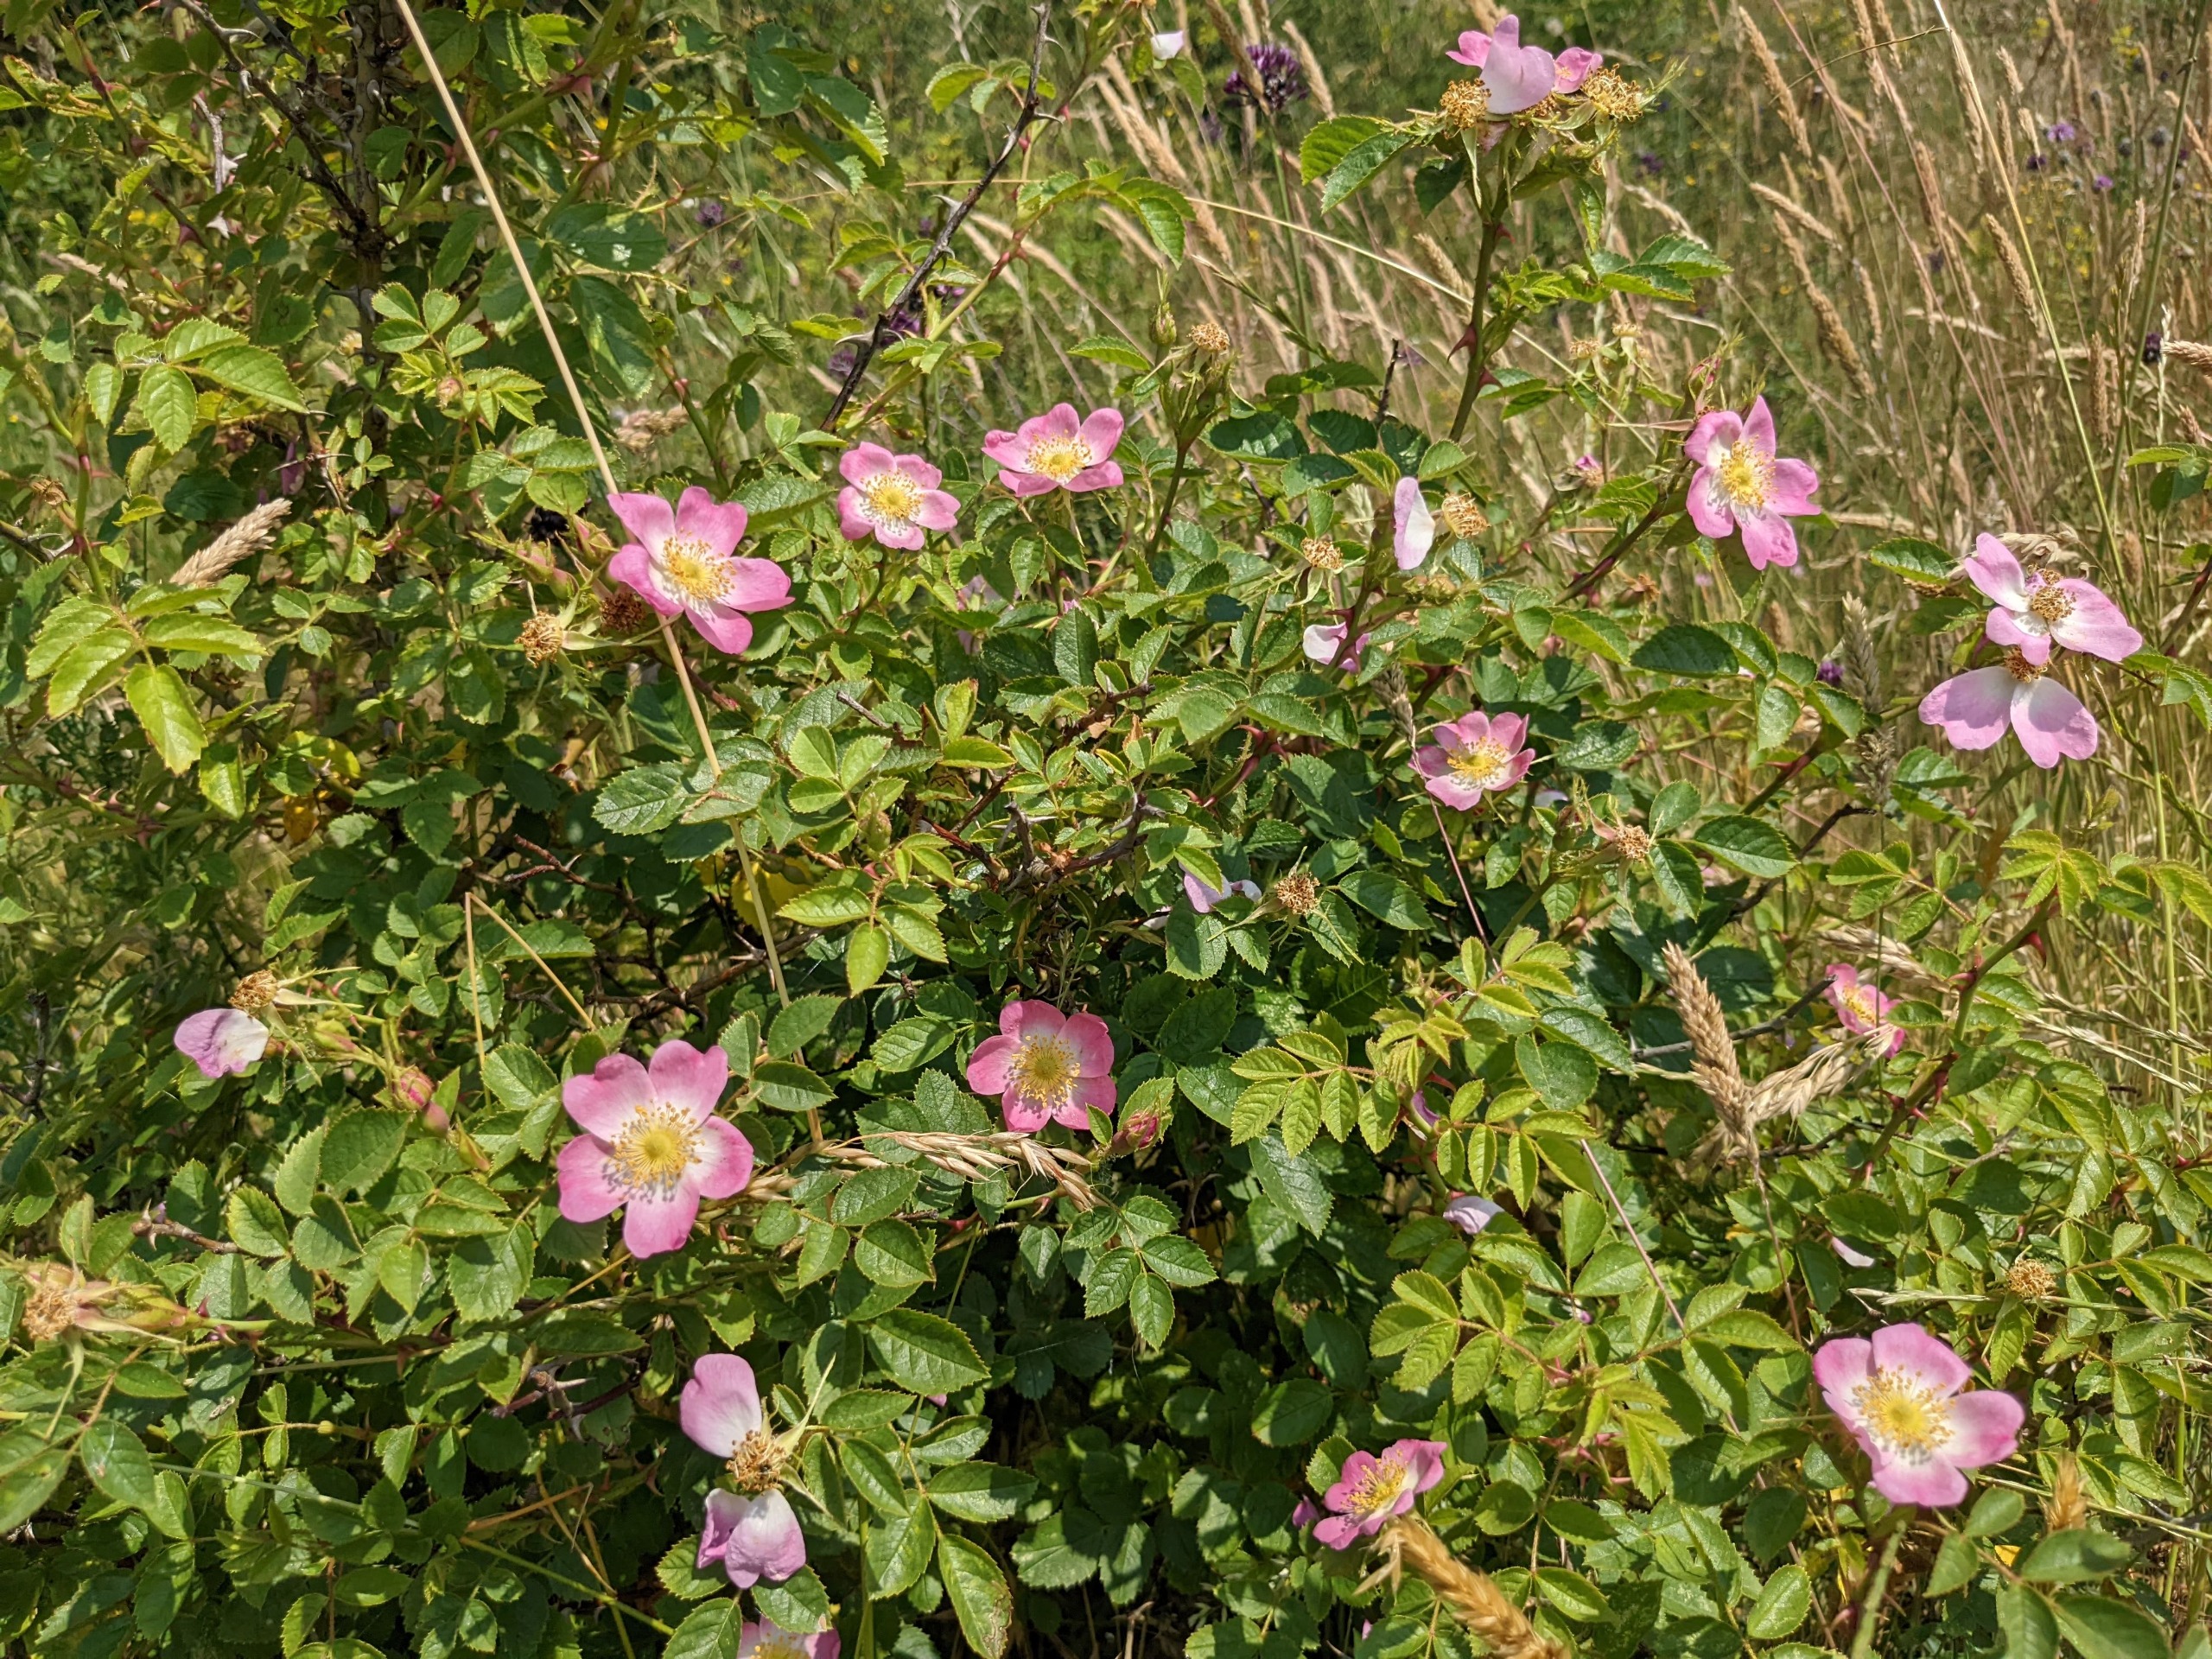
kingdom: Plantae
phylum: Tracheophyta
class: Magnoliopsida
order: Rosales
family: Rosaceae
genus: Rosa
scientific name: Rosa rubiginosa
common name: Æble-rose
